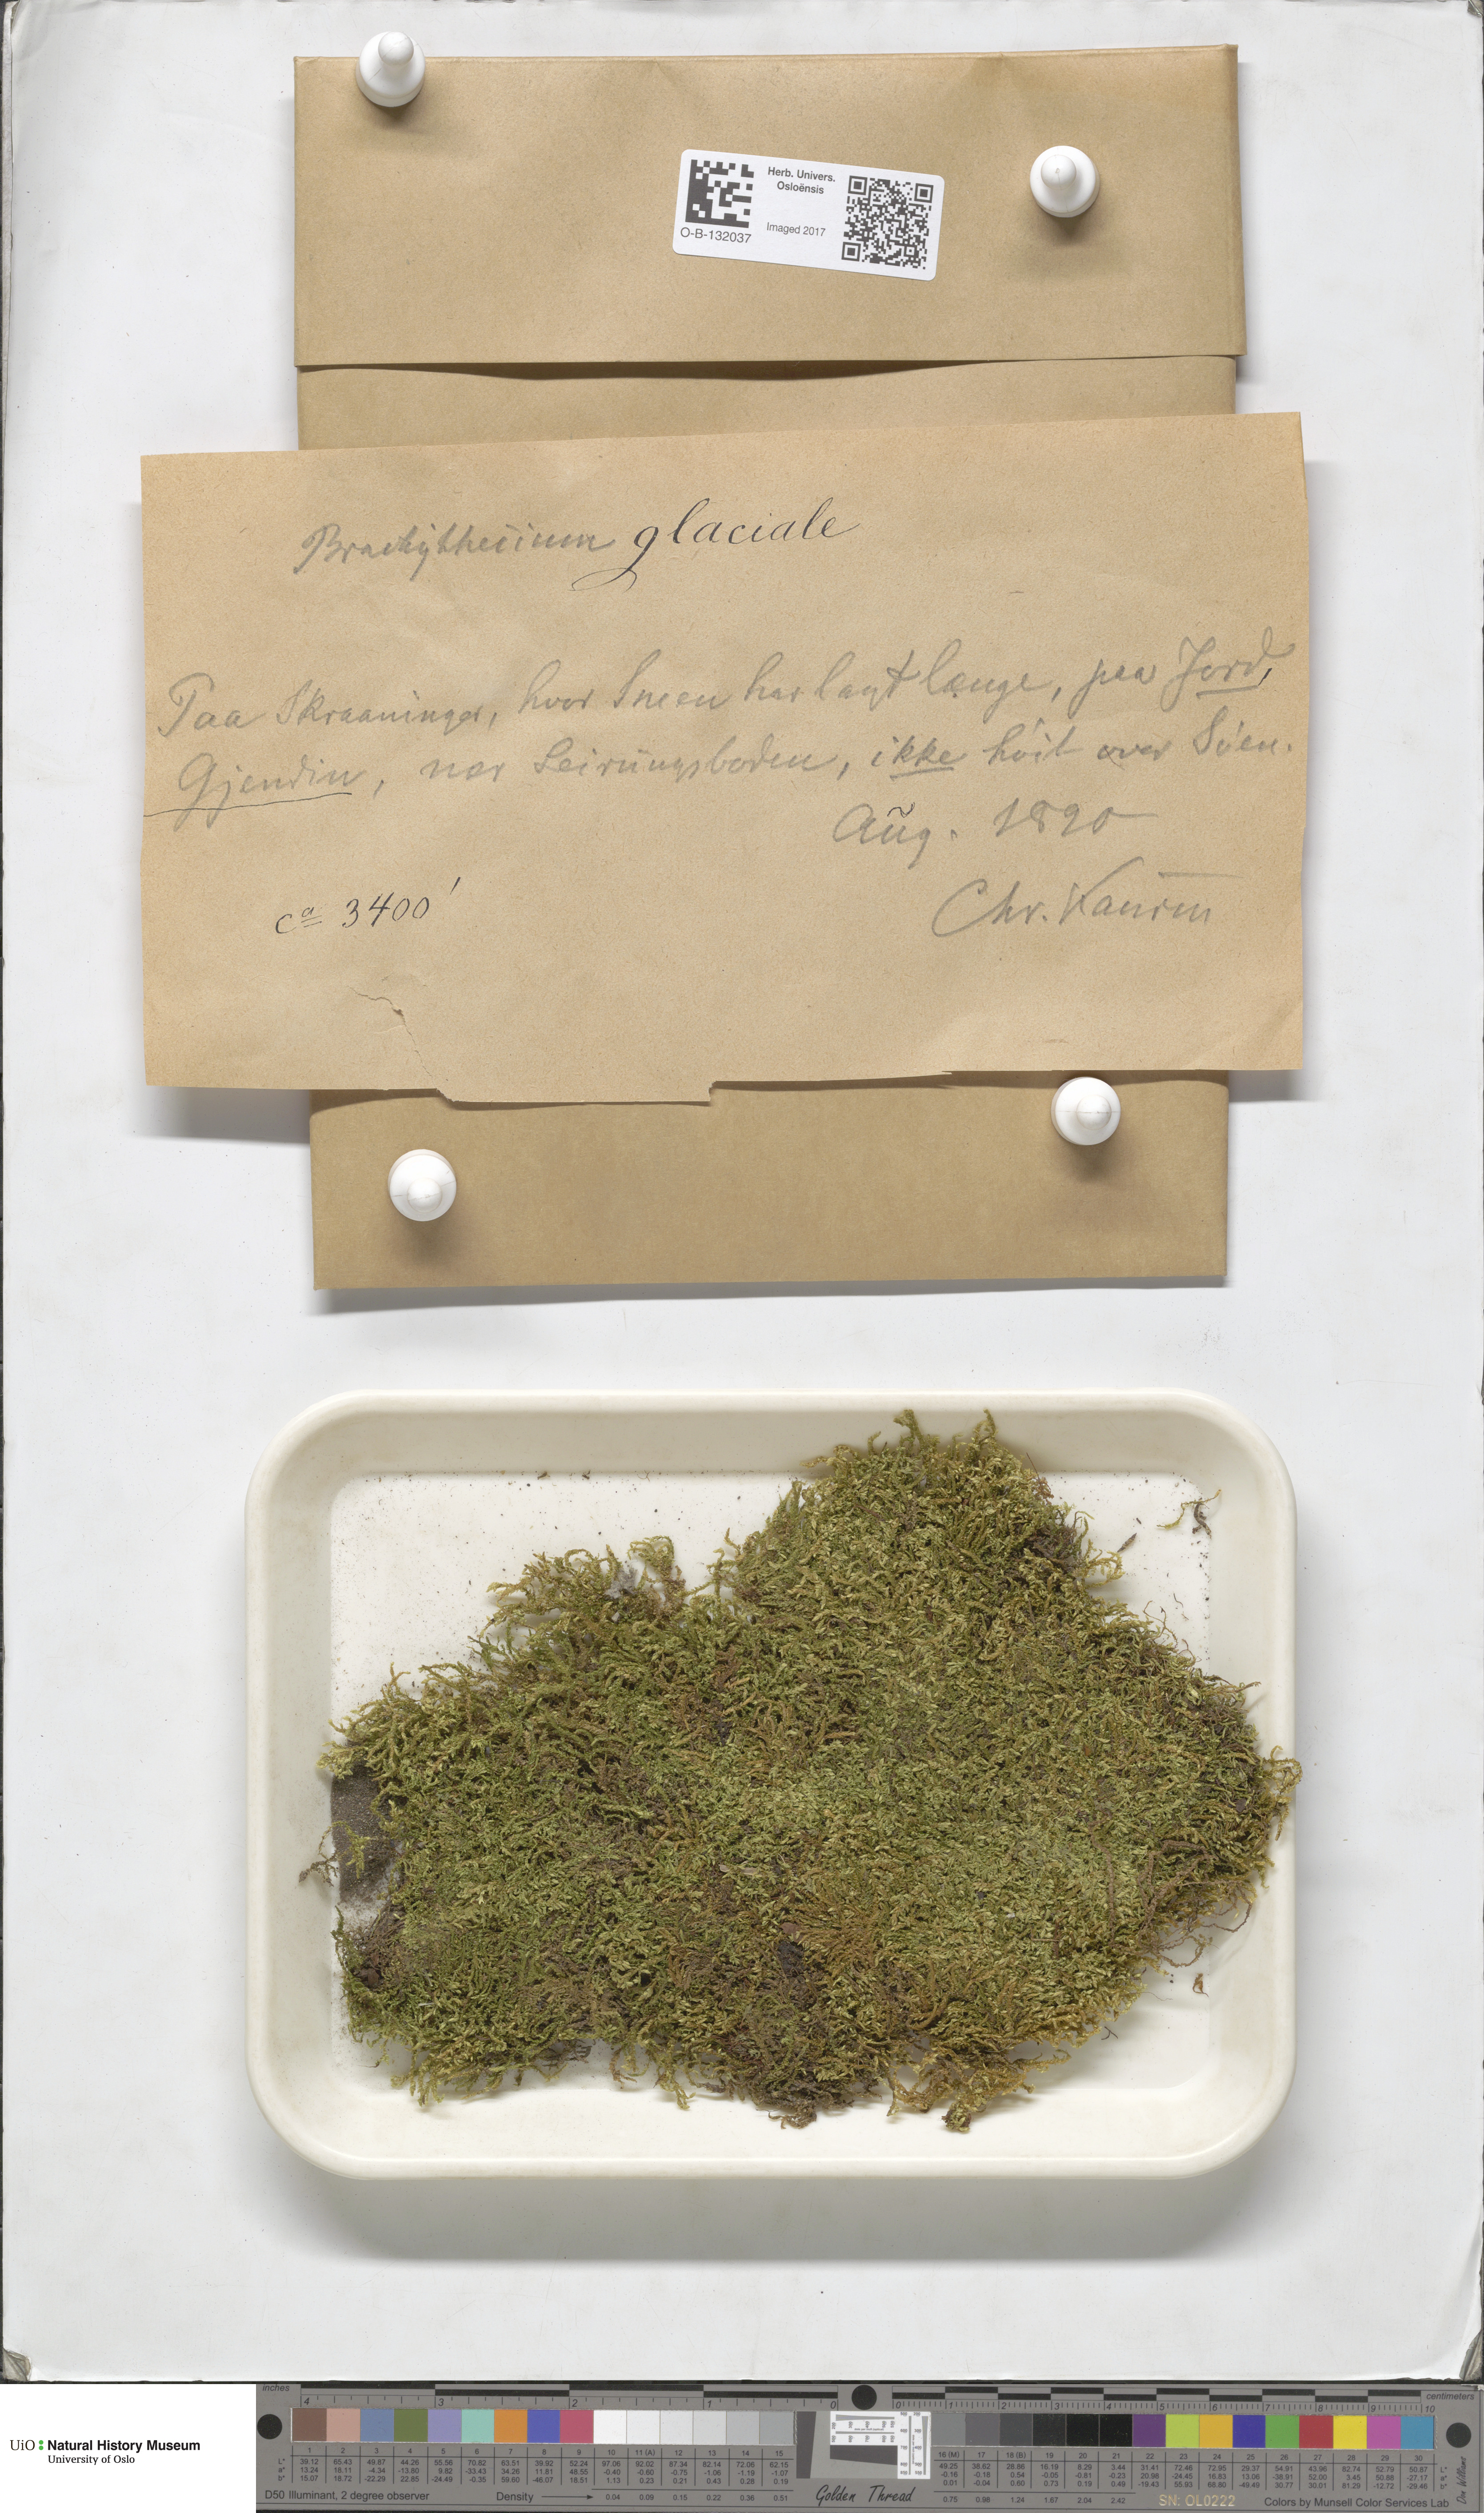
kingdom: Plantae
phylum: Bryophyta
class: Bryopsida
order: Hypnales
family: Brachytheciaceae
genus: Sciuro-hypnum
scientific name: Sciuro-hypnum glaciale
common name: Snow feather-moss
